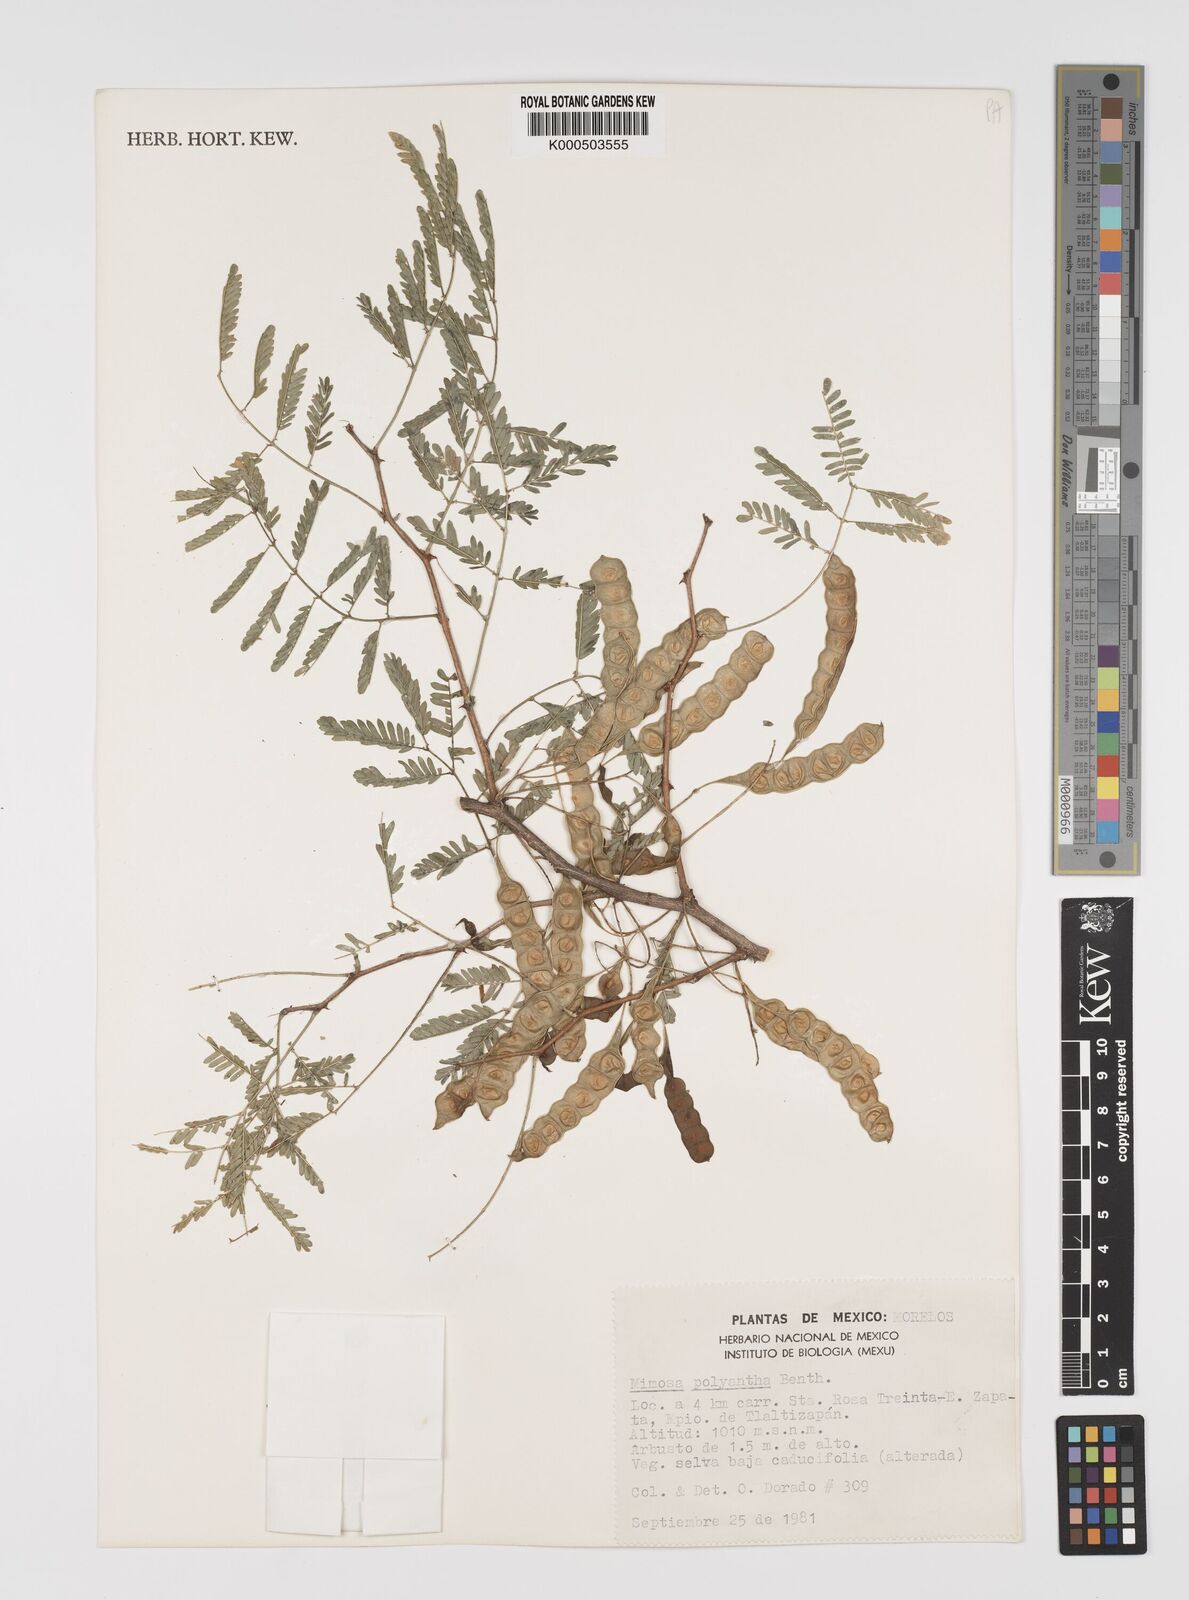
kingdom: Plantae
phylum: Tracheophyta
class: Magnoliopsida
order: Fabales
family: Fabaceae
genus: Mimosa
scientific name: Mimosa polyantha
